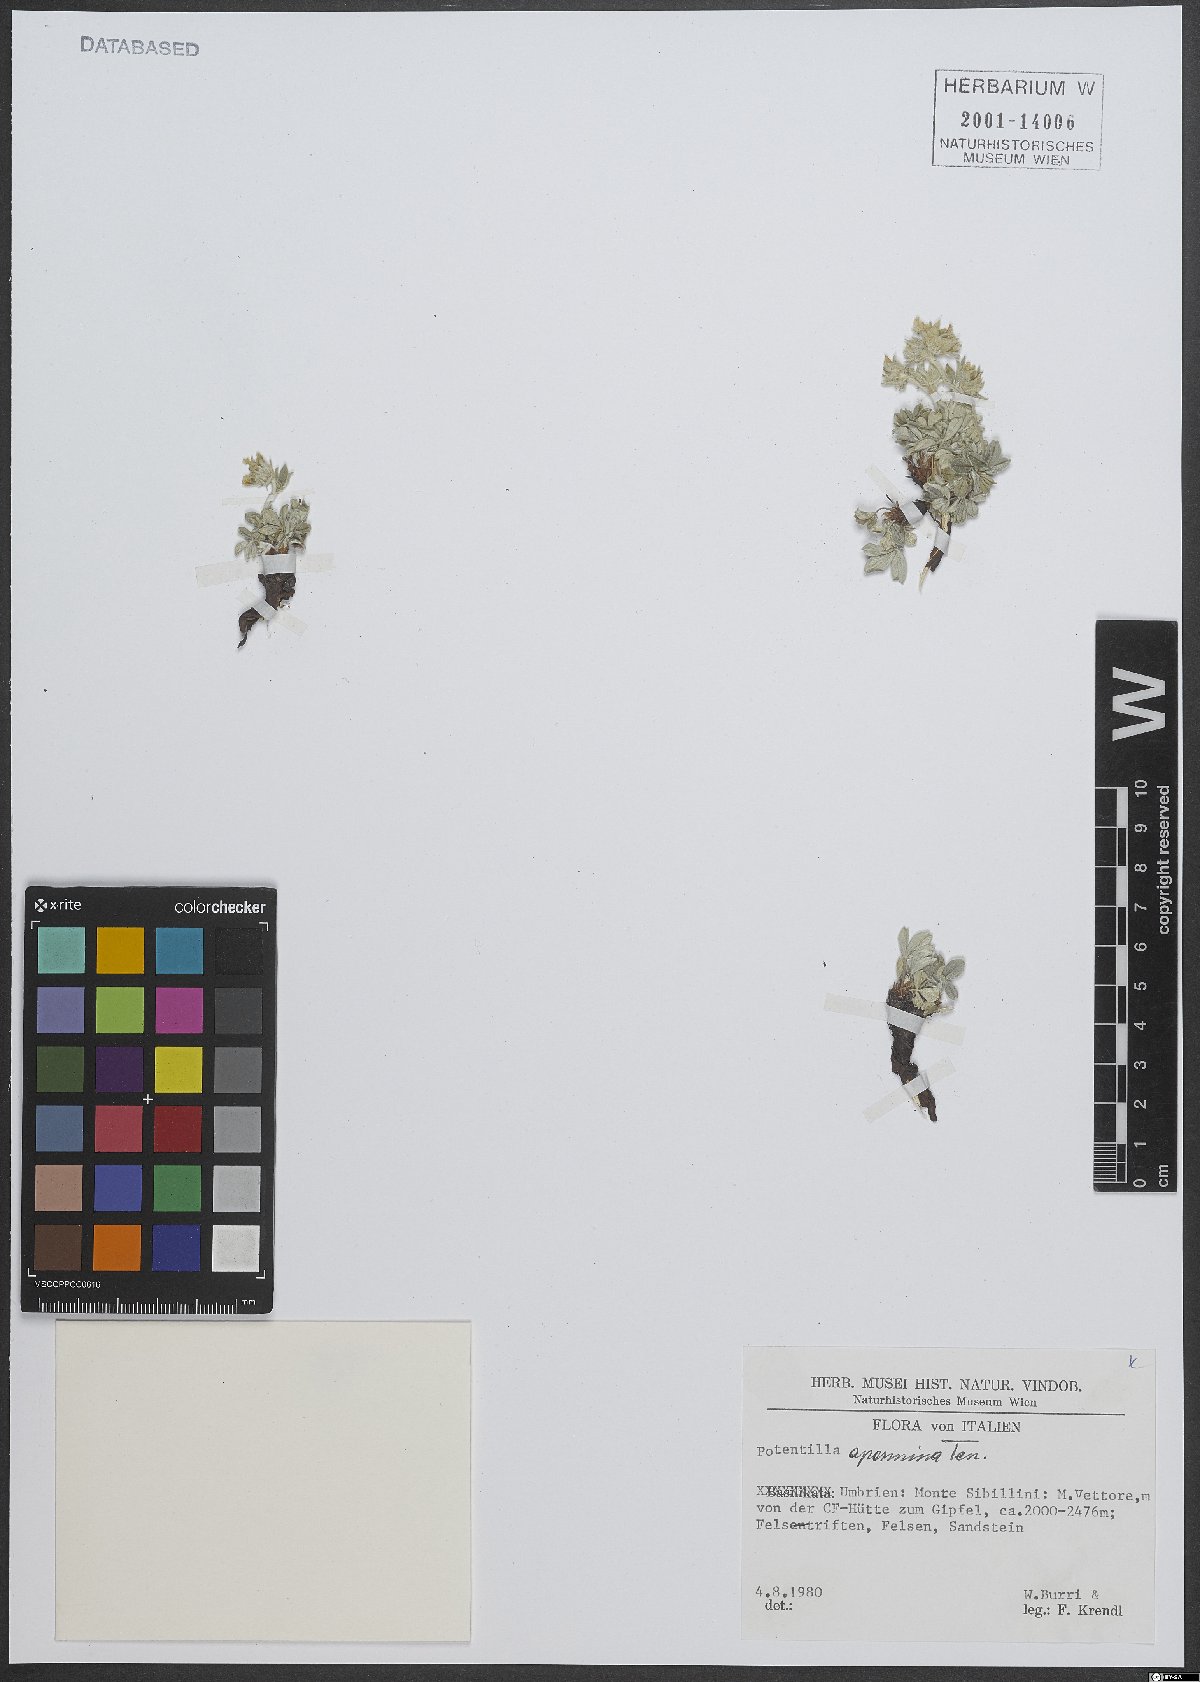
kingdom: Plantae
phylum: Tracheophyta
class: Magnoliopsida
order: Rosales
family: Rosaceae
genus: Potentilla
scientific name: Potentilla apennina
